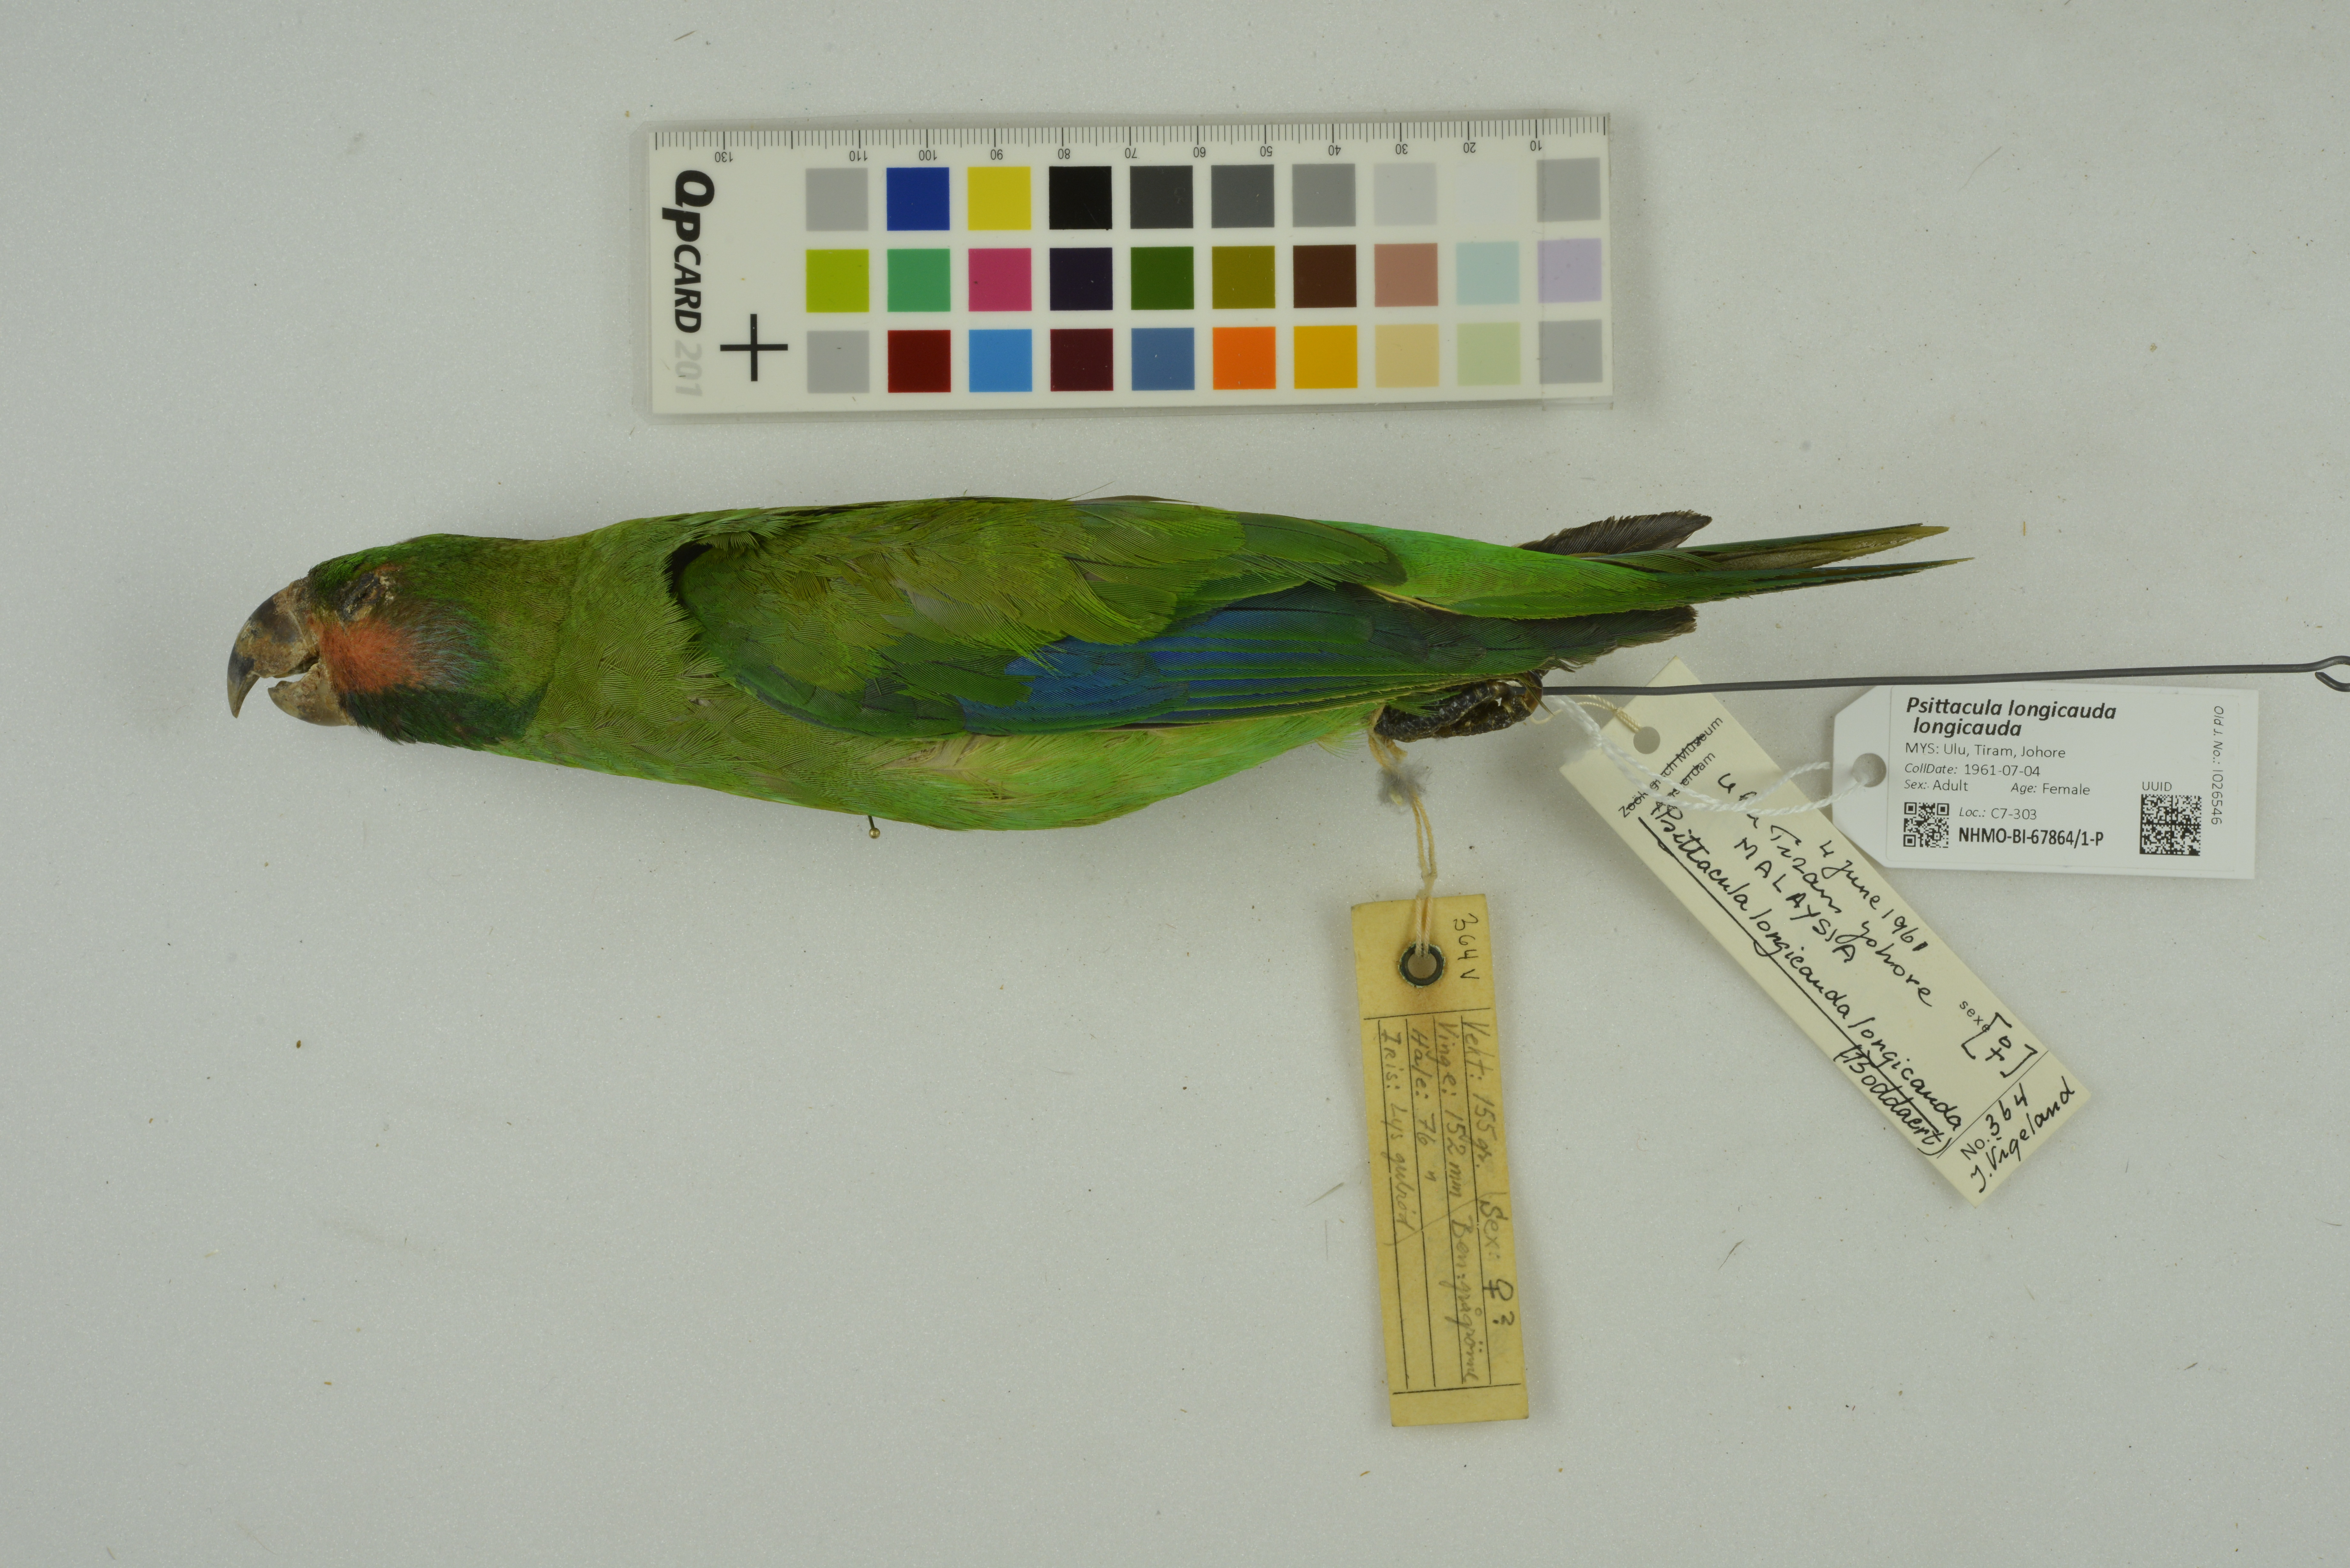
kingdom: Animalia
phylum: Chordata
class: Aves
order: Psittaciformes
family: Psittacidae
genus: Psittacula
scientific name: Psittacula longicauda
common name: Long-tailed parakeet
